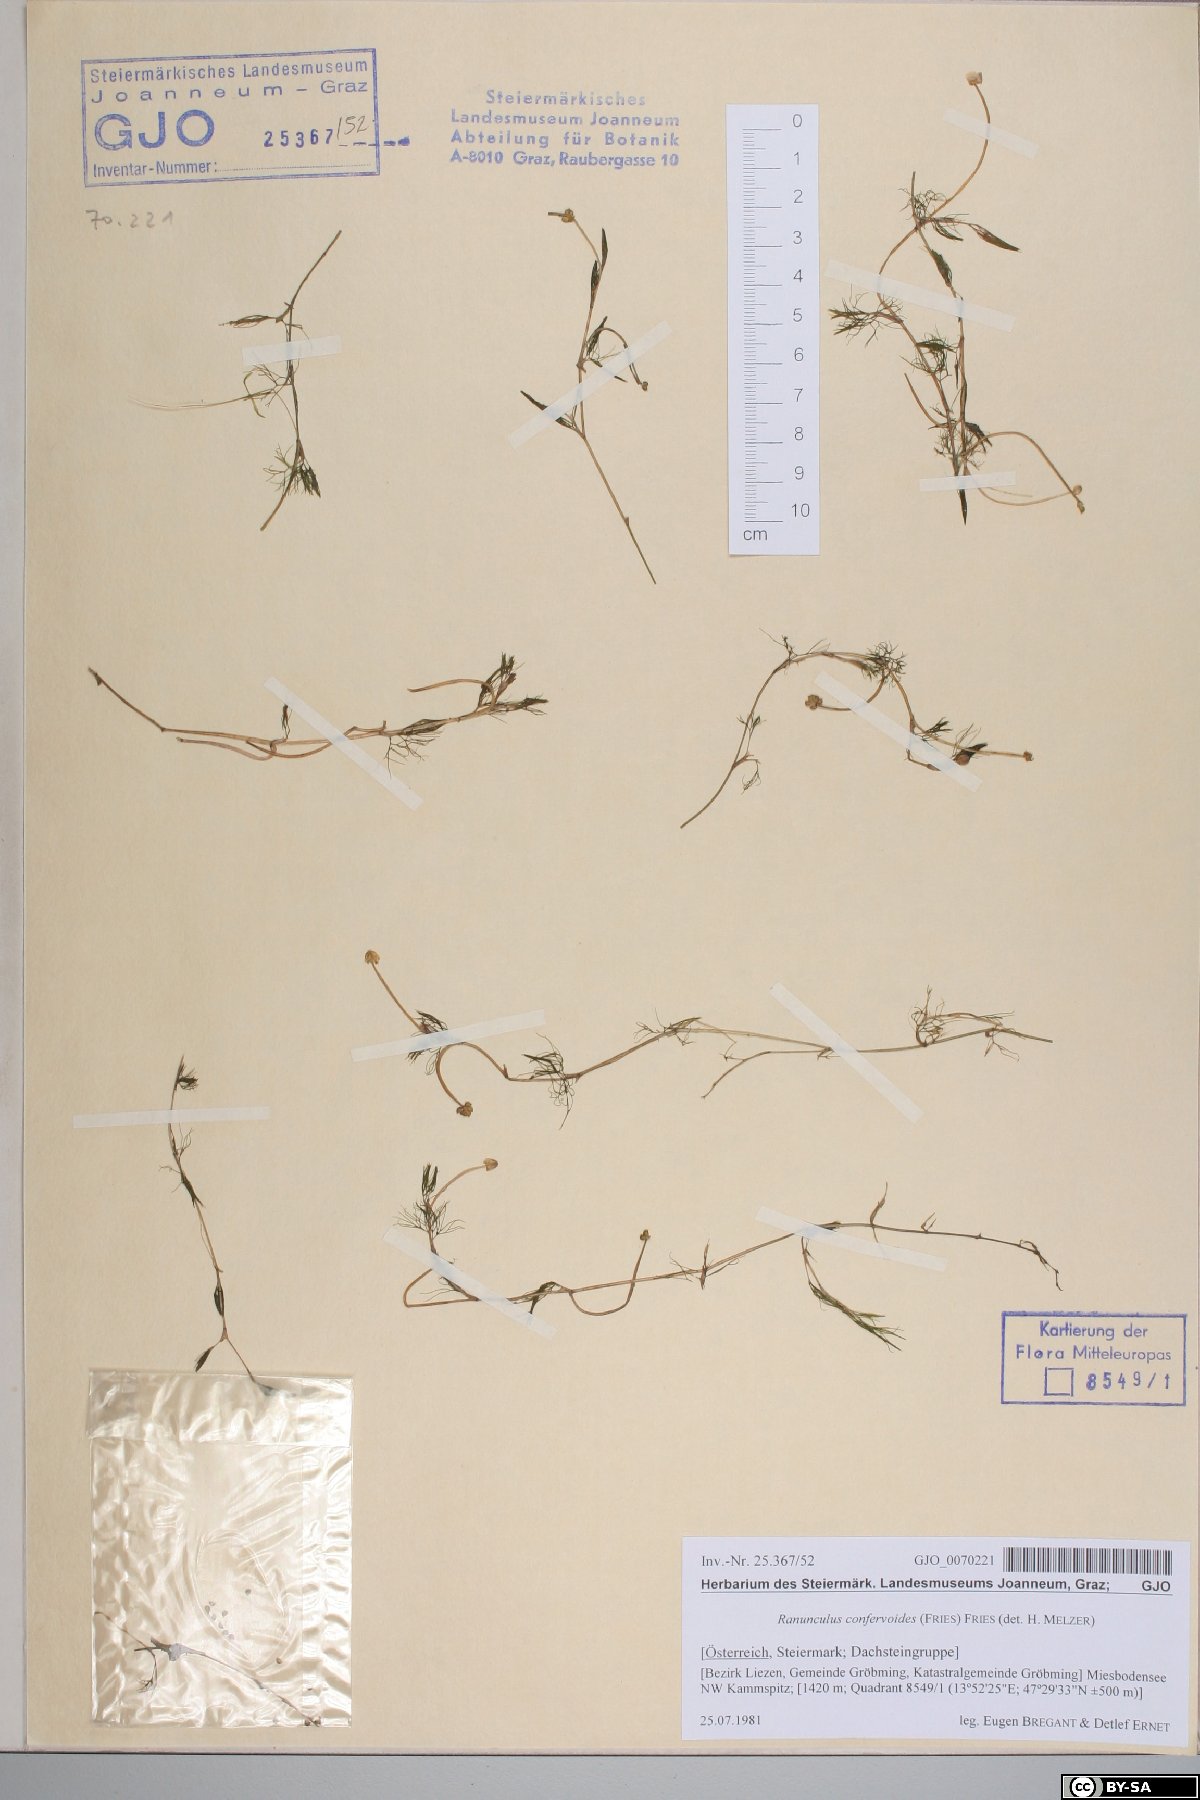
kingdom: Plantae
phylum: Tracheophyta
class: Magnoliopsida
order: Ranunculales
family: Ranunculaceae
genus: Ranunculus
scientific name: Ranunculus confervoides
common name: Delicate buttercup
